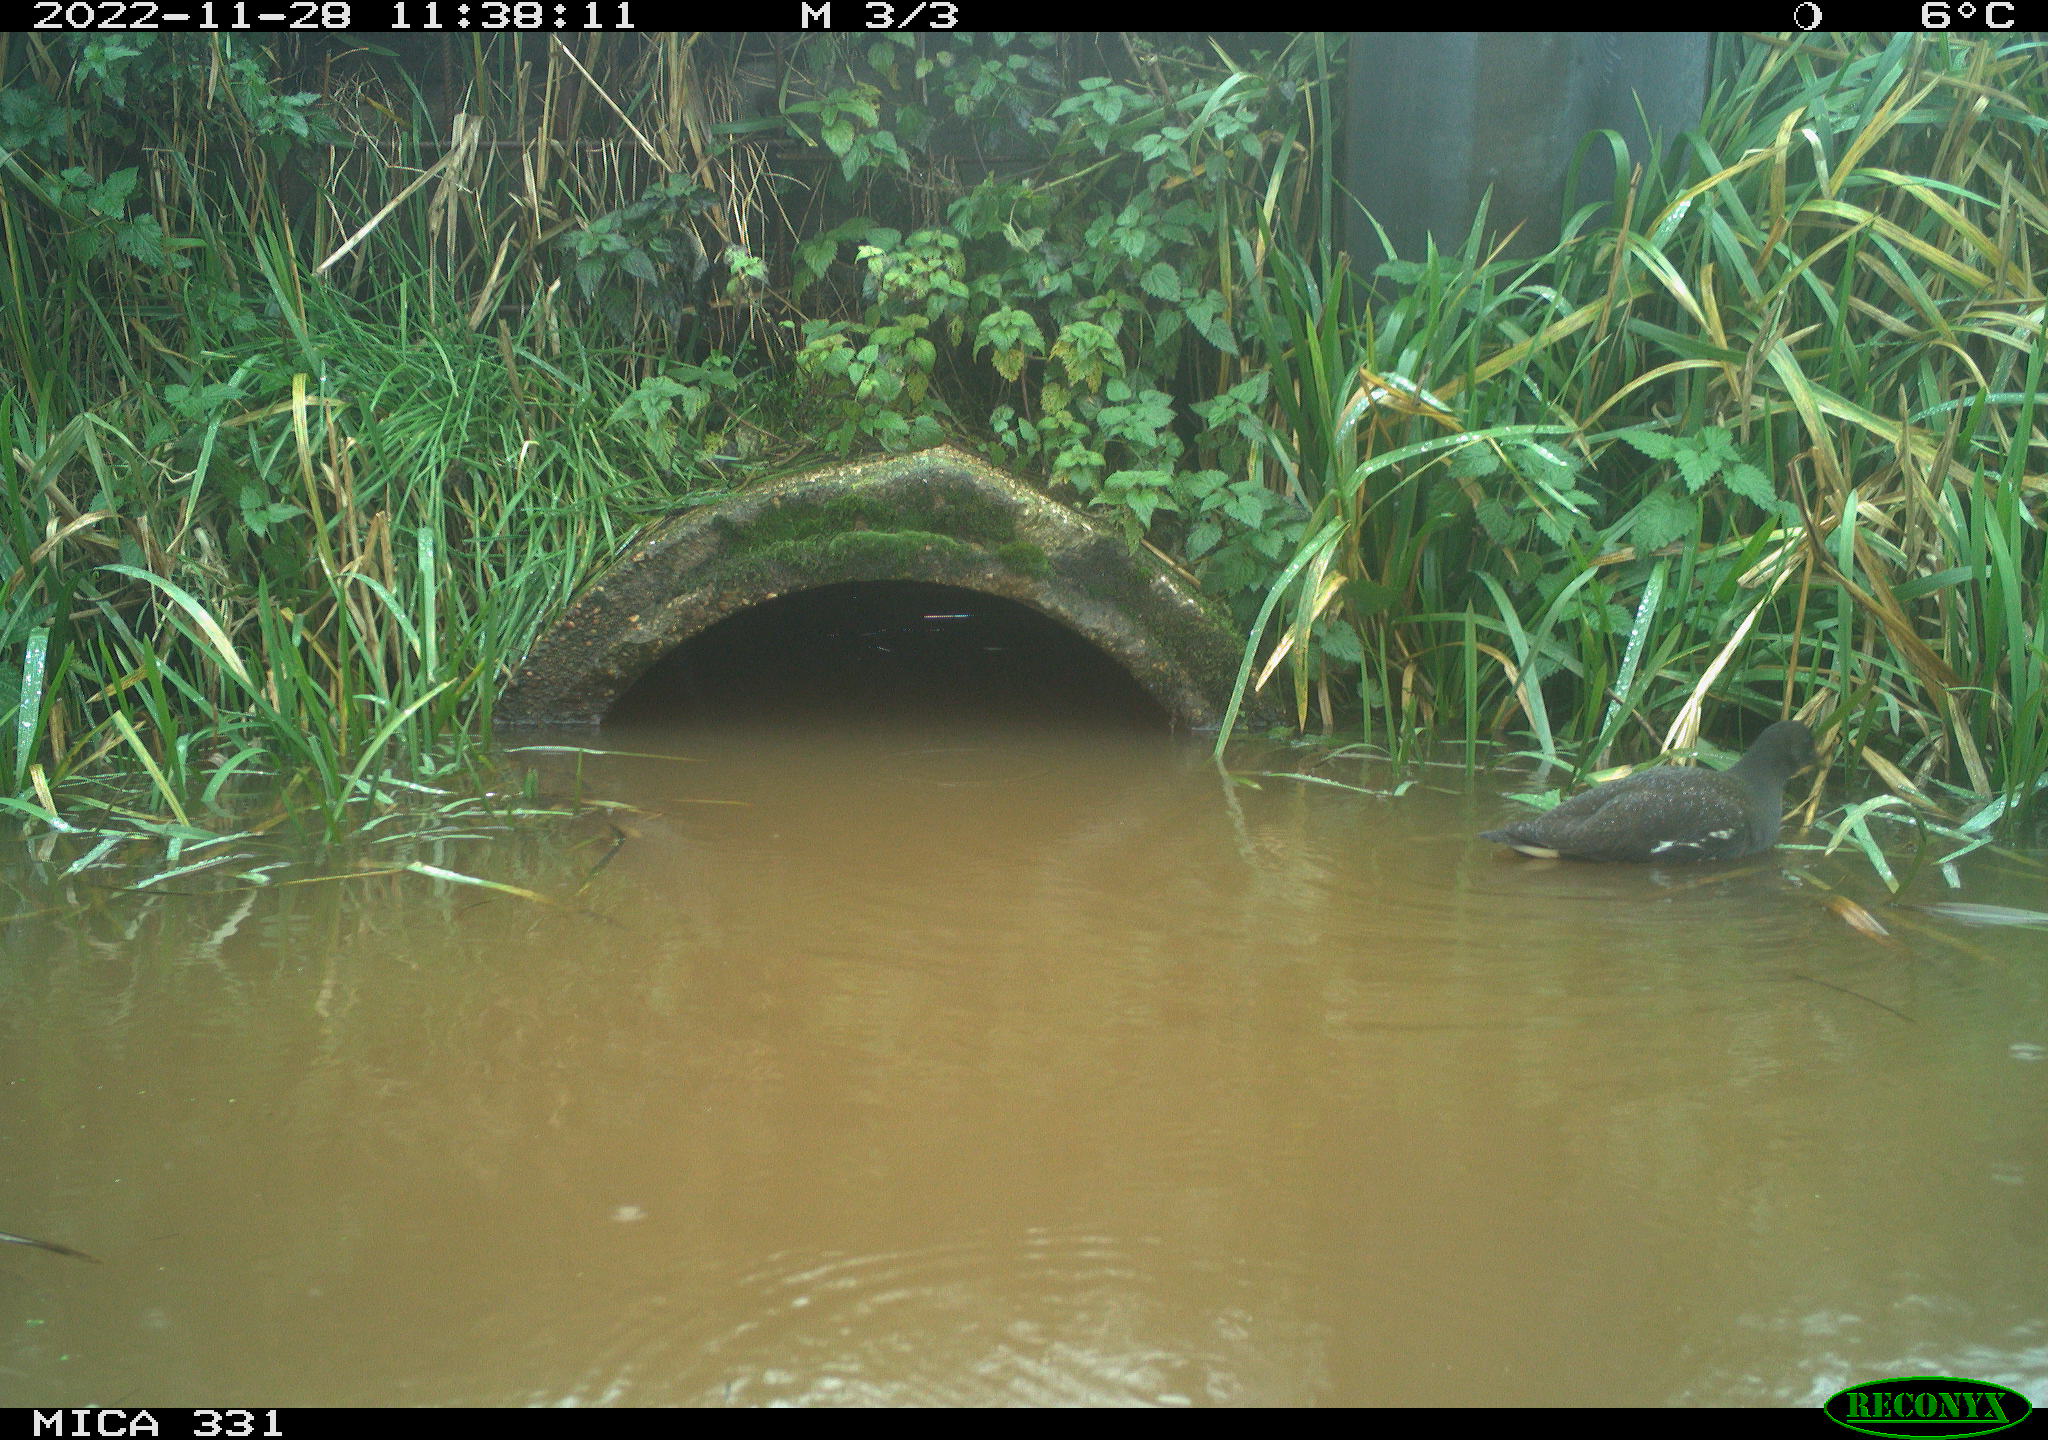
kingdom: Animalia
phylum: Chordata
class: Aves
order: Gruiformes
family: Rallidae
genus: Gallinula
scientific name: Gallinula chloropus
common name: Common moorhen
